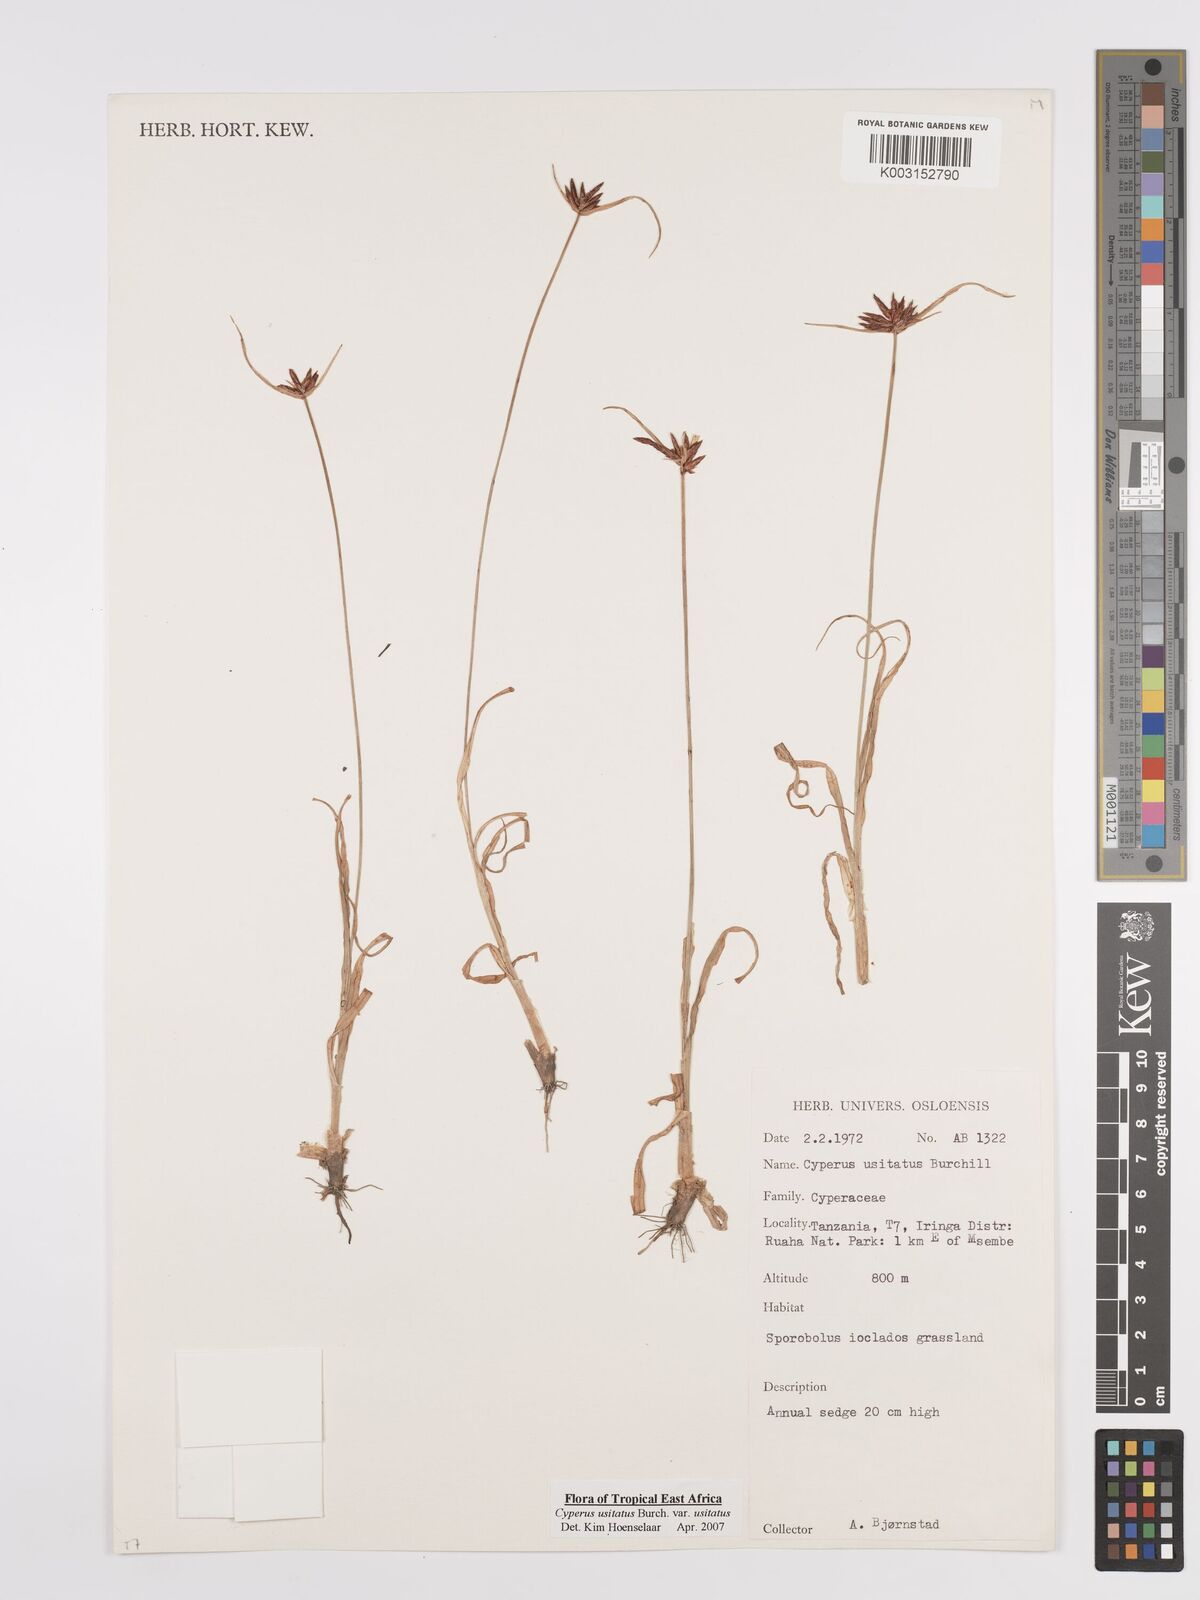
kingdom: Plantae
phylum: Tracheophyta
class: Liliopsida
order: Poales
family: Cyperaceae
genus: Cyperus
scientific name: Cyperus usitatus
